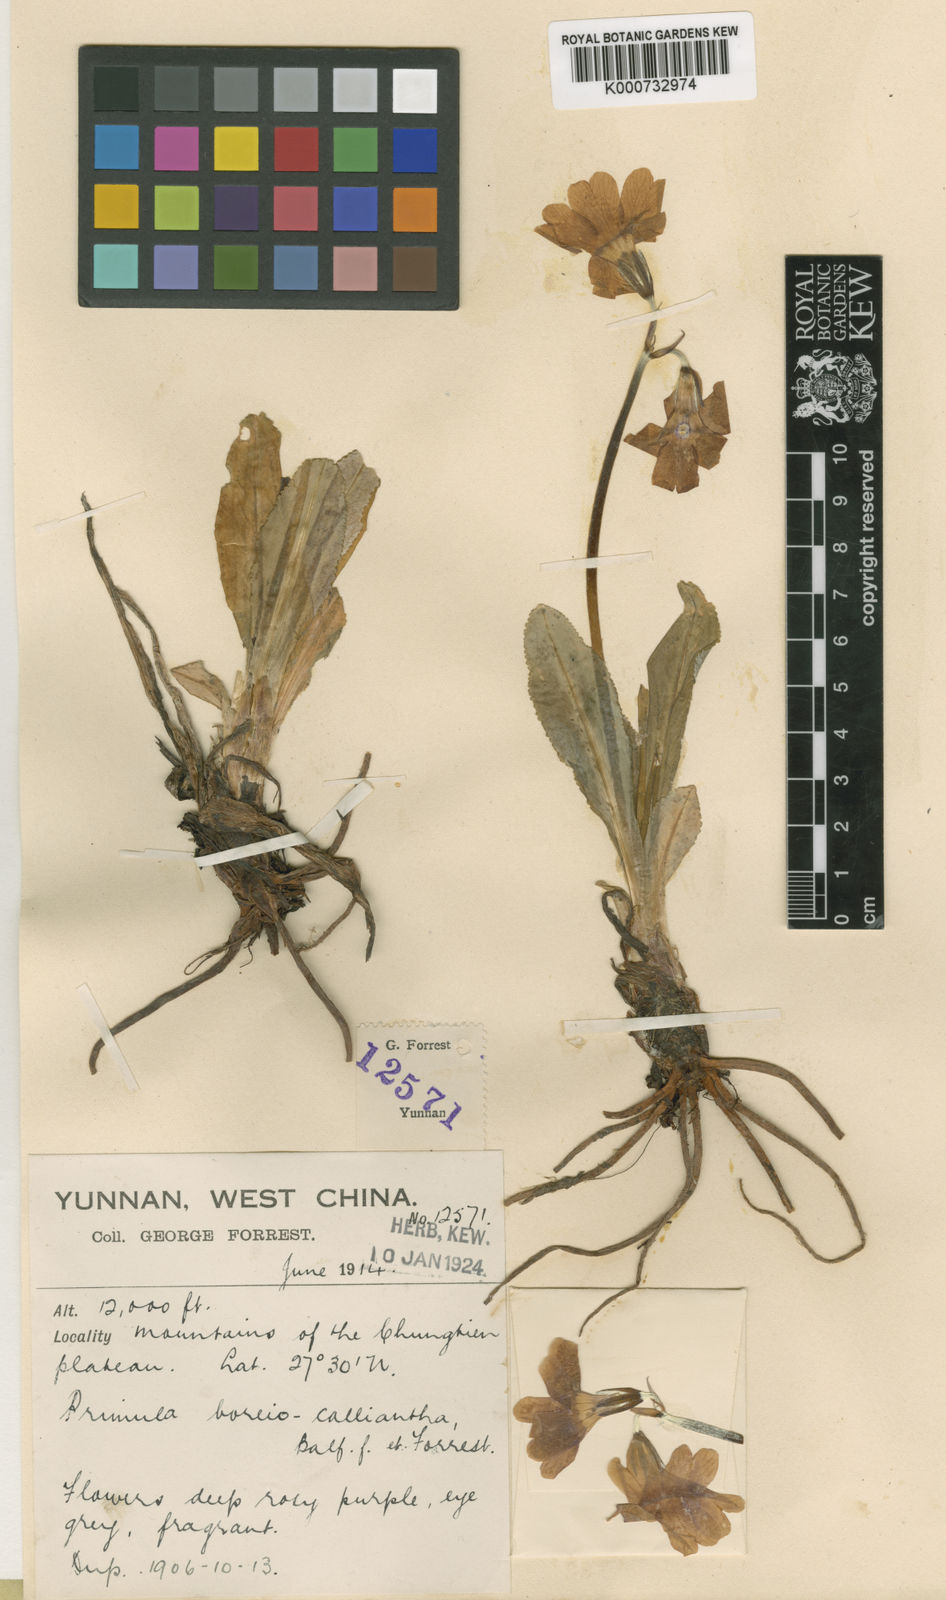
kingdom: Plantae
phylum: Tracheophyta
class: Magnoliopsida
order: Ericales
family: Primulaceae
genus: Primula
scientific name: Primula
